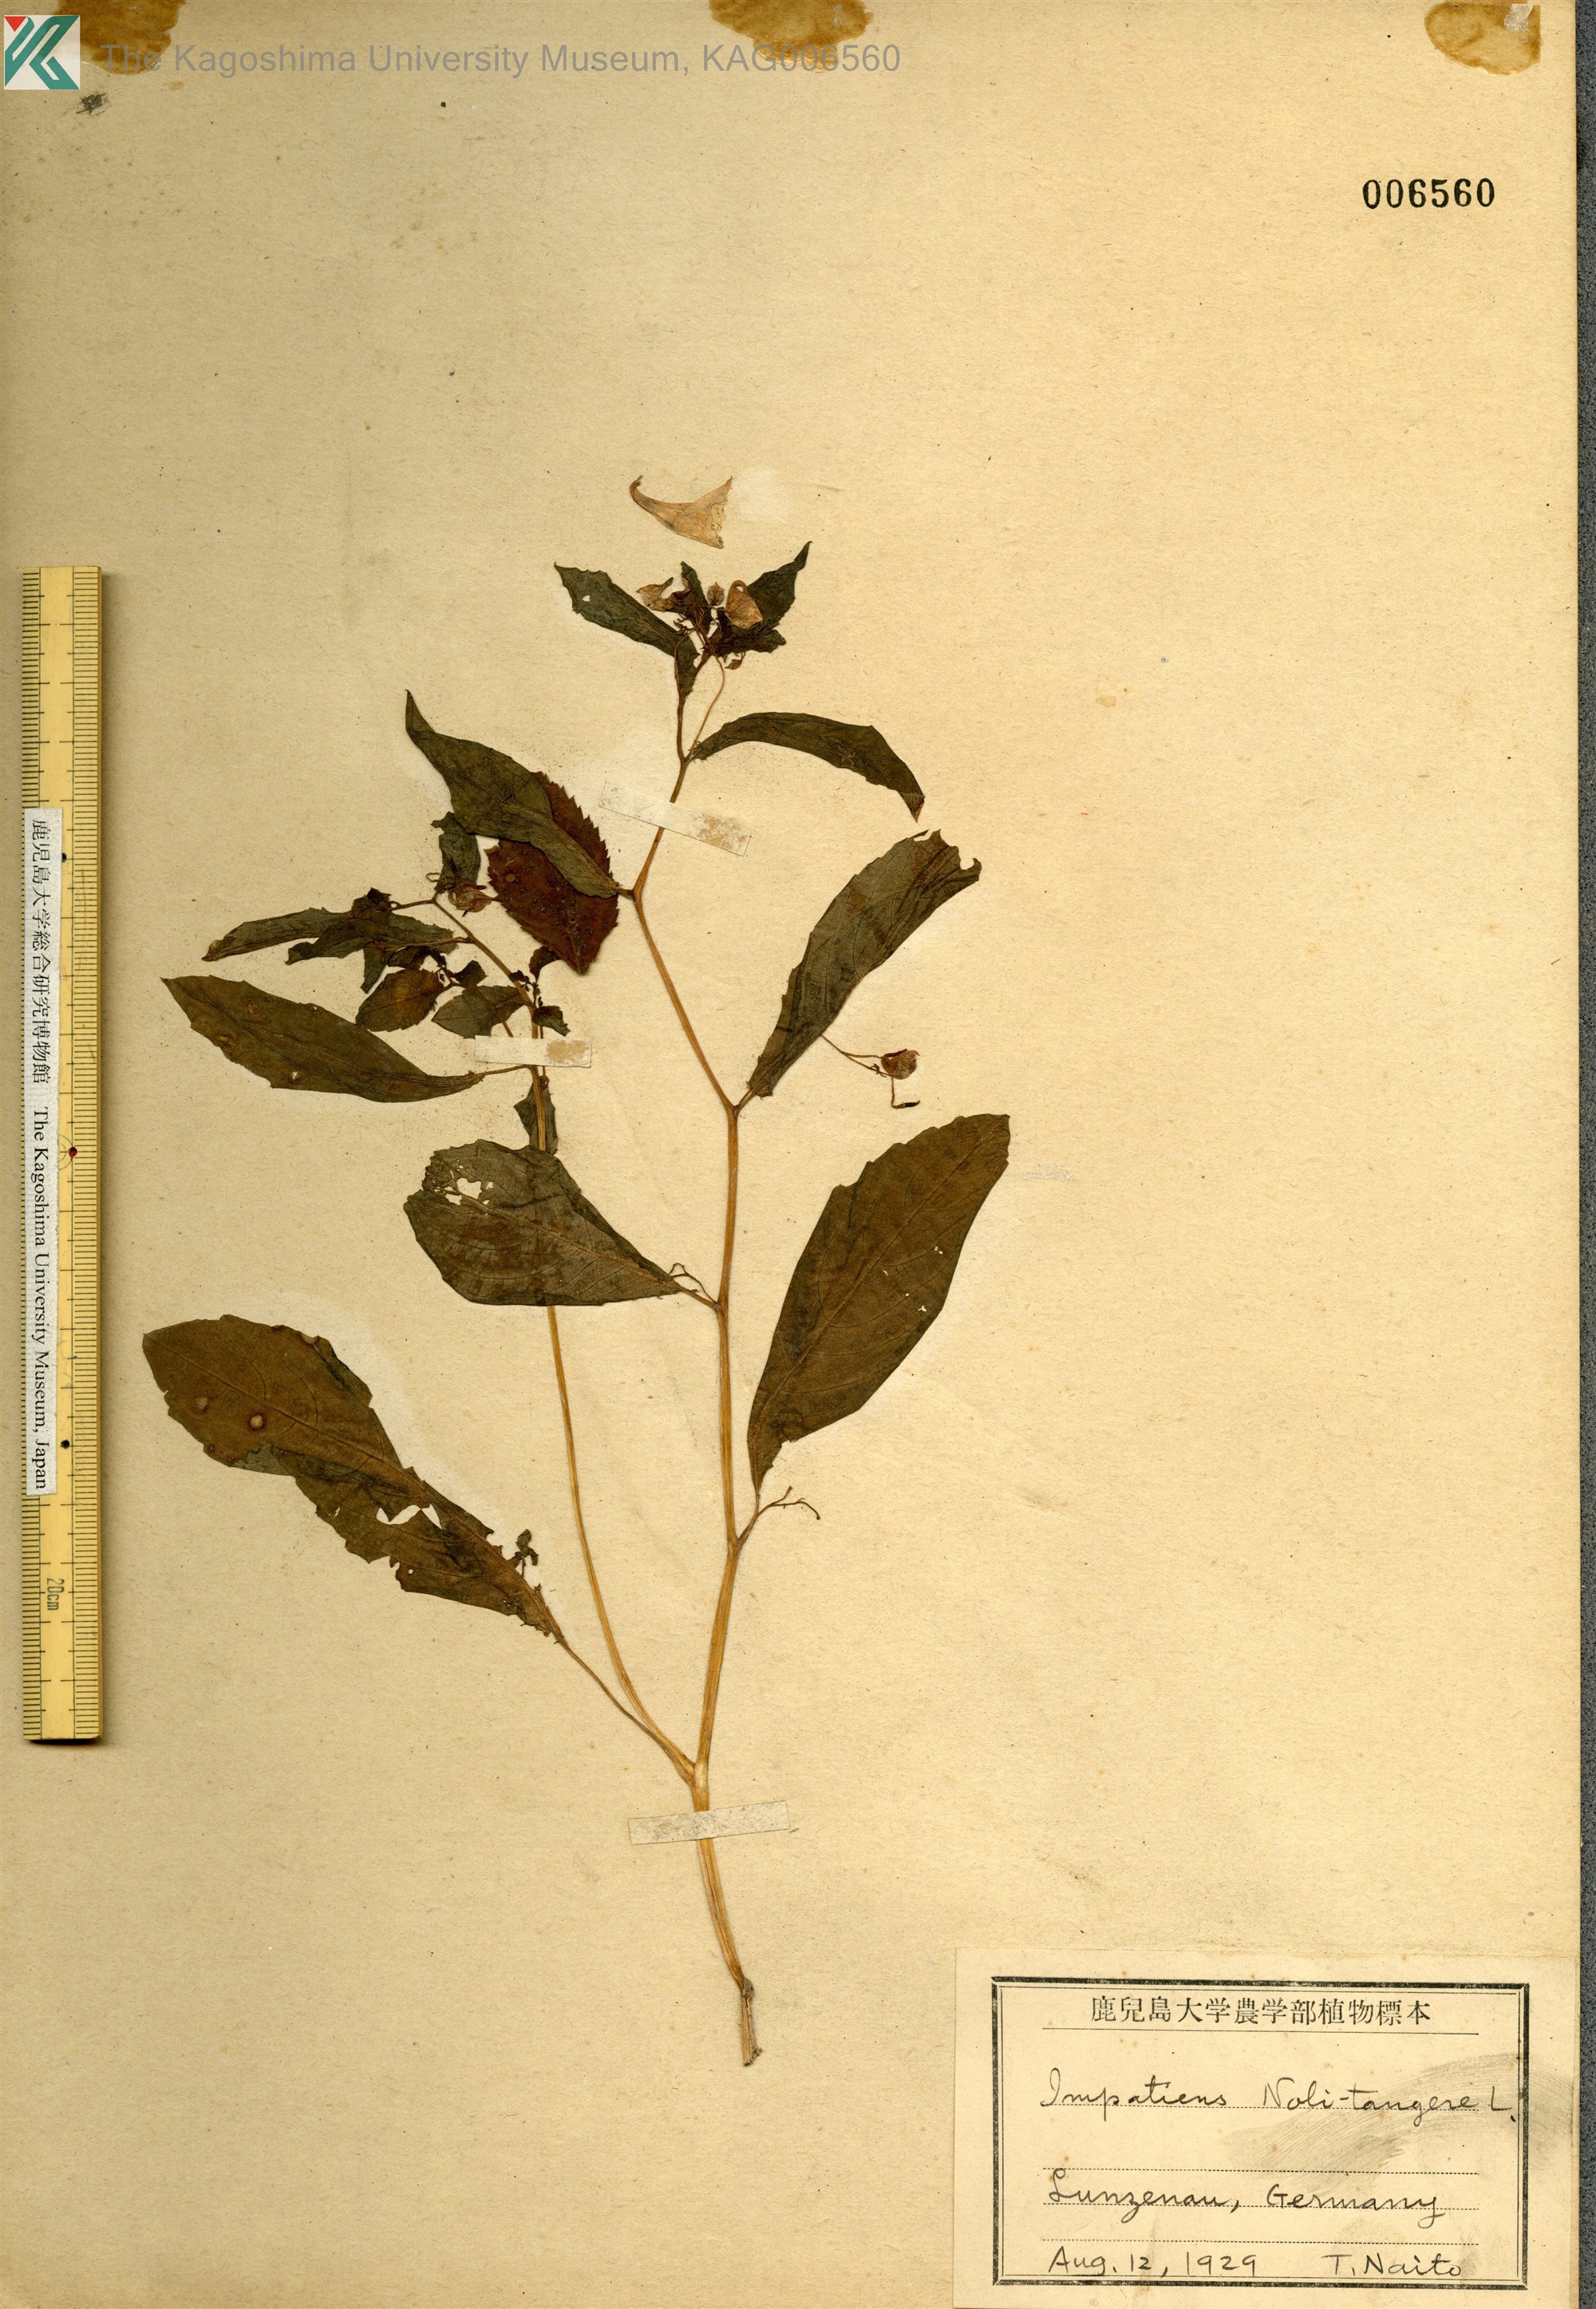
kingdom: Plantae
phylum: Tracheophyta
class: Magnoliopsida
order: Ericales
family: Balsaminaceae
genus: Impatiens
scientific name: Impatiens noli-tangere
